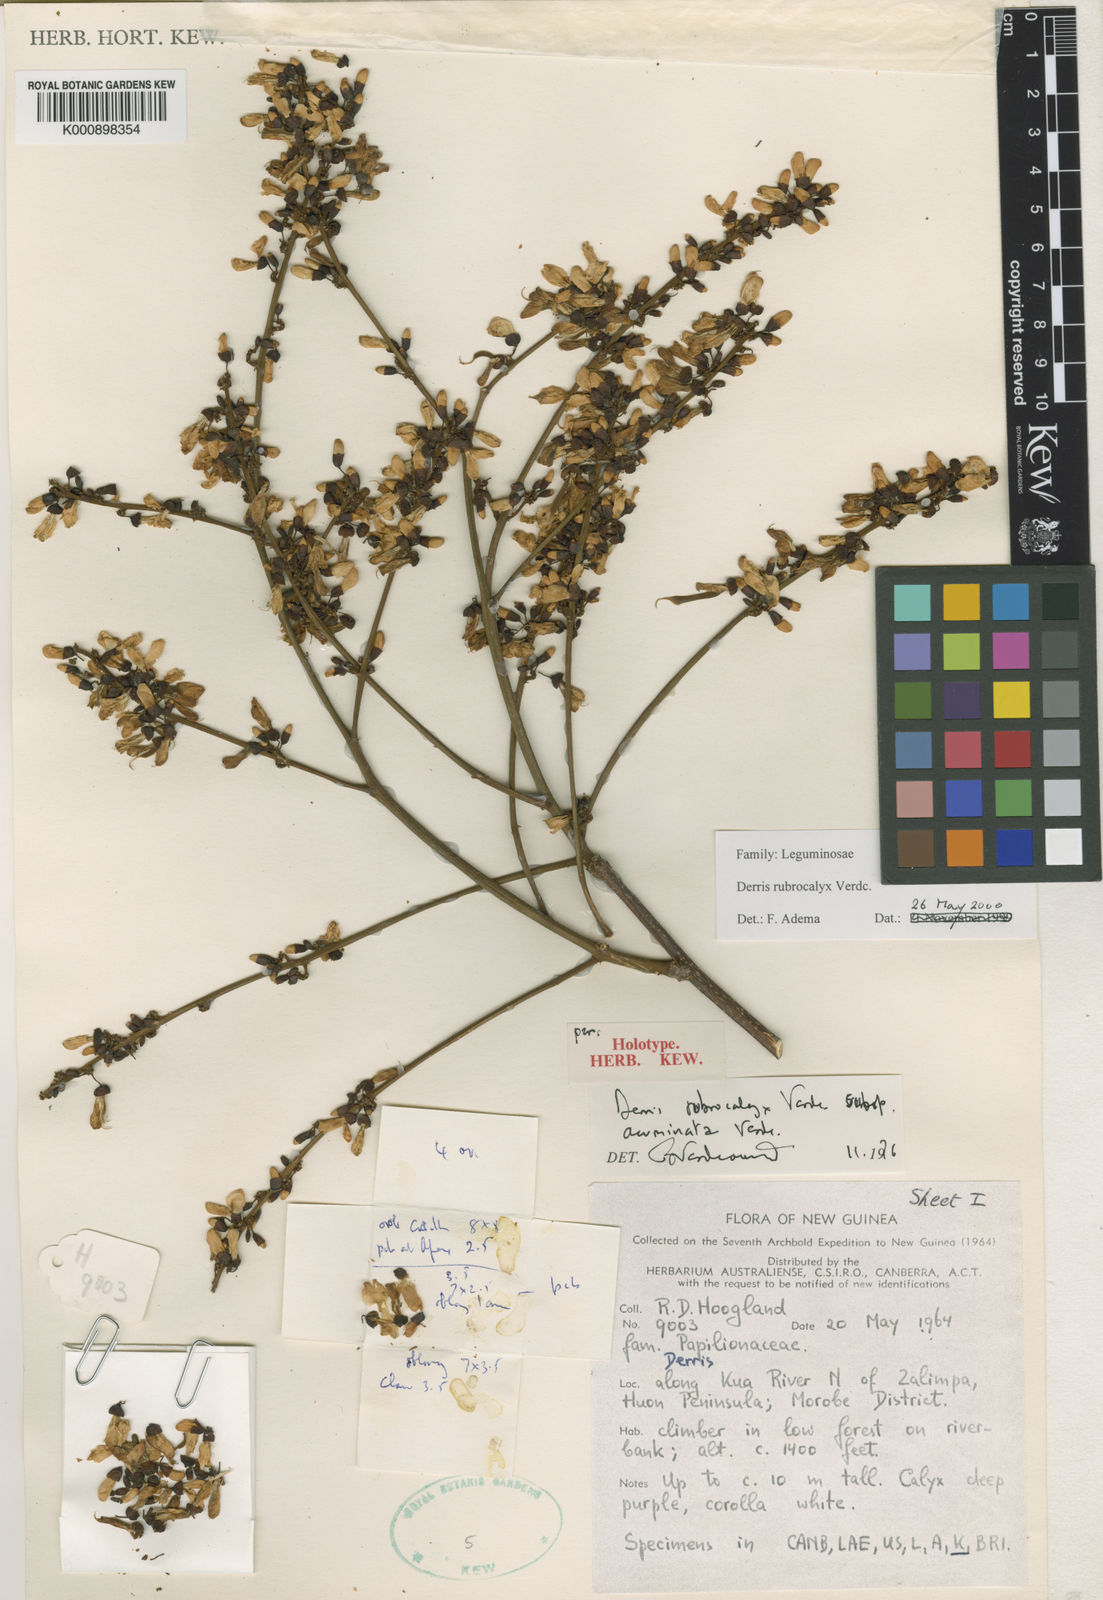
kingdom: Plantae
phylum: Tracheophyta
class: Magnoliopsida
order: Fabales
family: Fabaceae
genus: Derris
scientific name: Derris rubrocalyx
